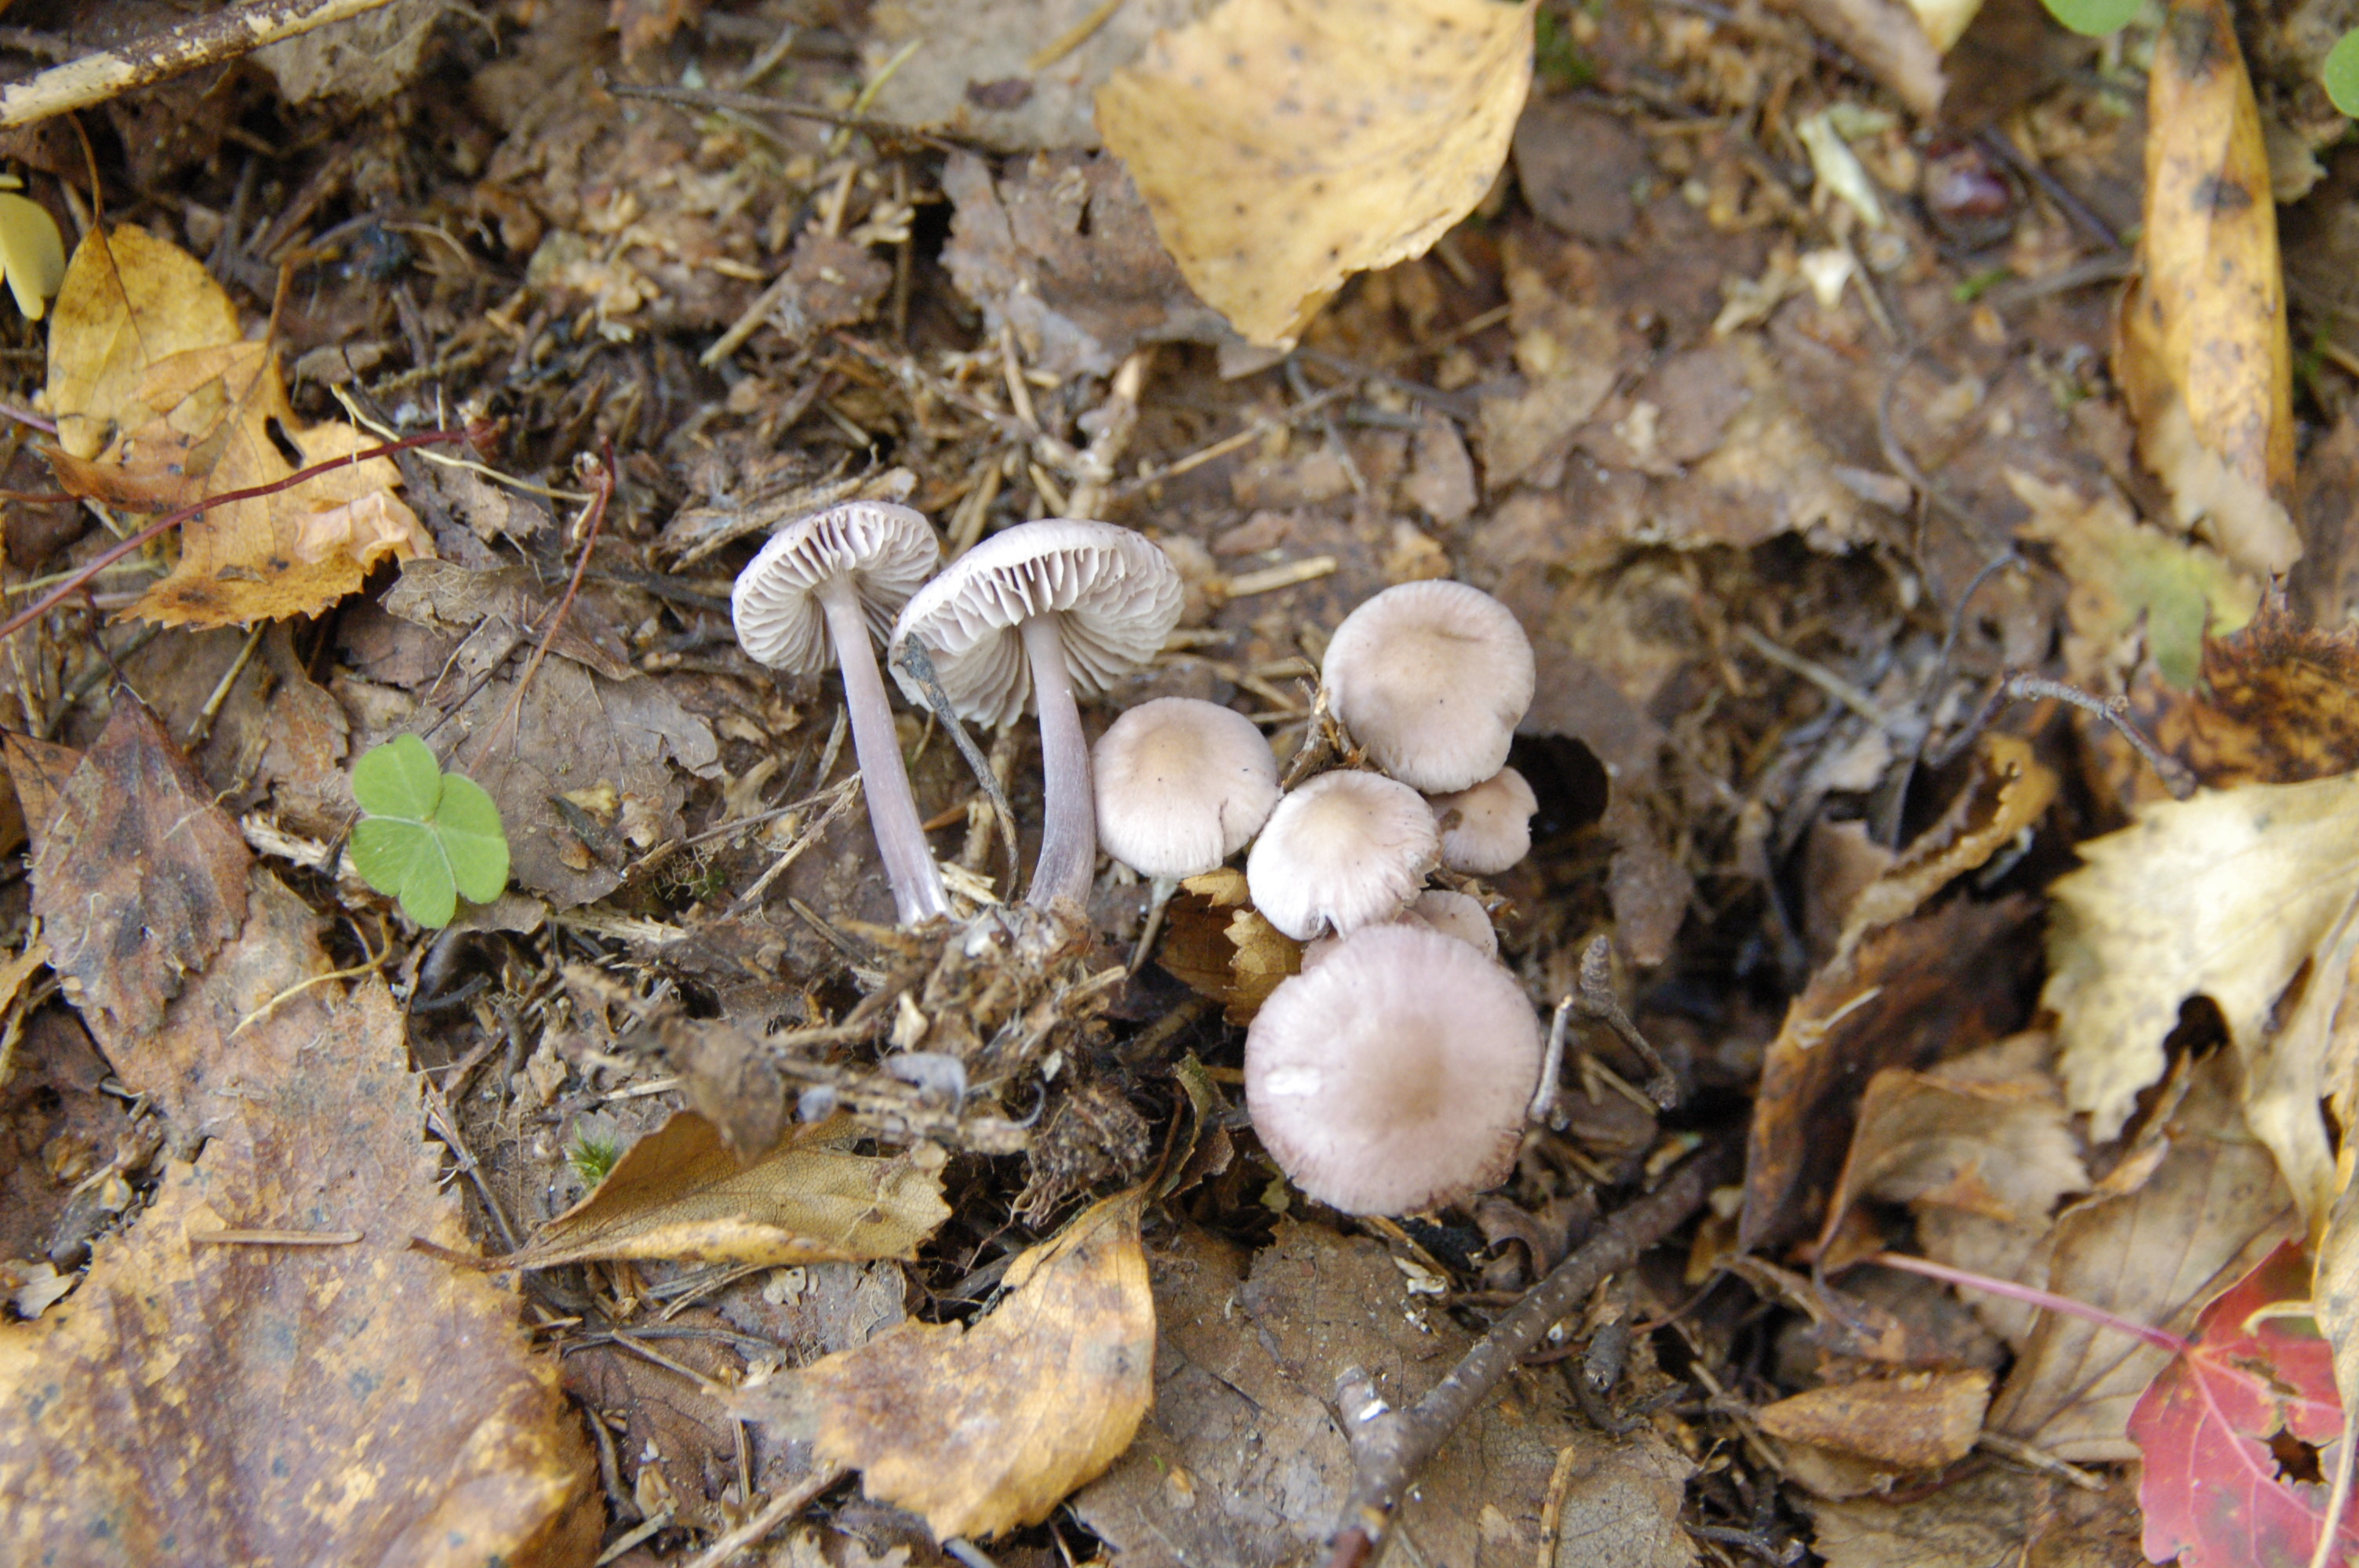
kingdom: Fungi
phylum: Basidiomycota
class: Agaricomycetes
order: Agaricales
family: Mycenaceae
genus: Mycena
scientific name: Mycena pura
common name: Lilac bonnet
